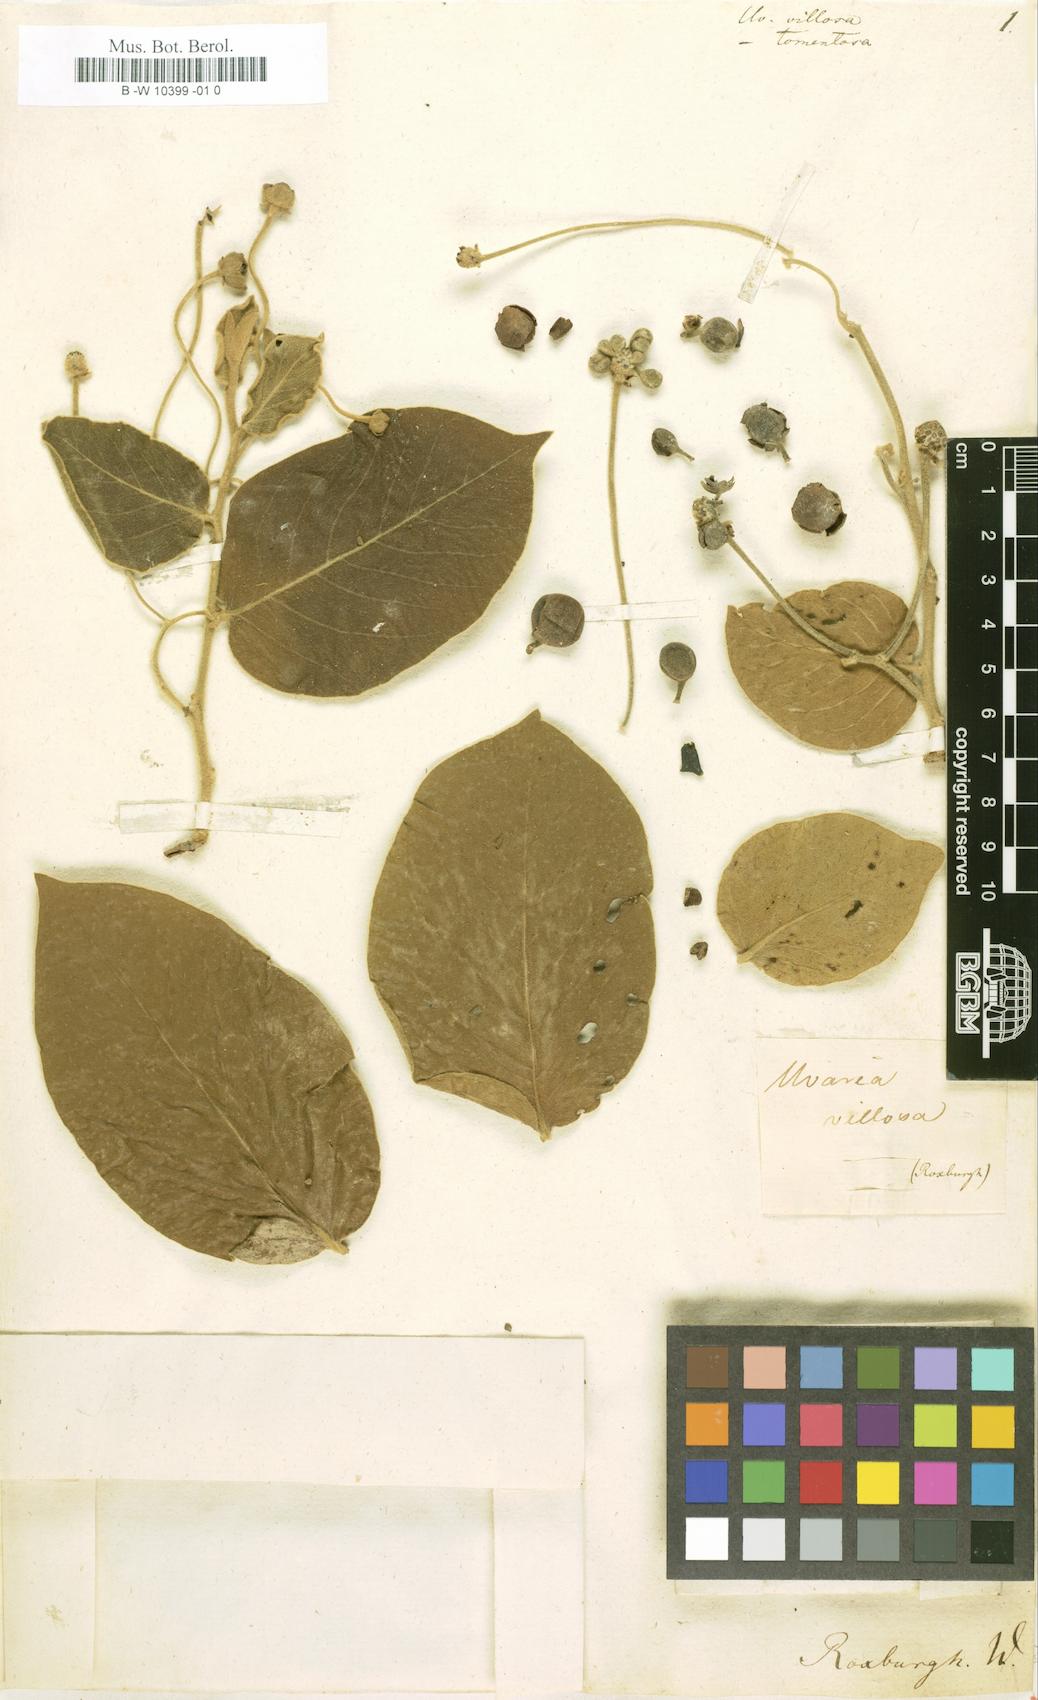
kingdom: Plantae
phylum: Tracheophyta
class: Magnoliopsida
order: Magnoliales
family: Annonaceae
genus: Miliusa
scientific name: Miliusa velutina
